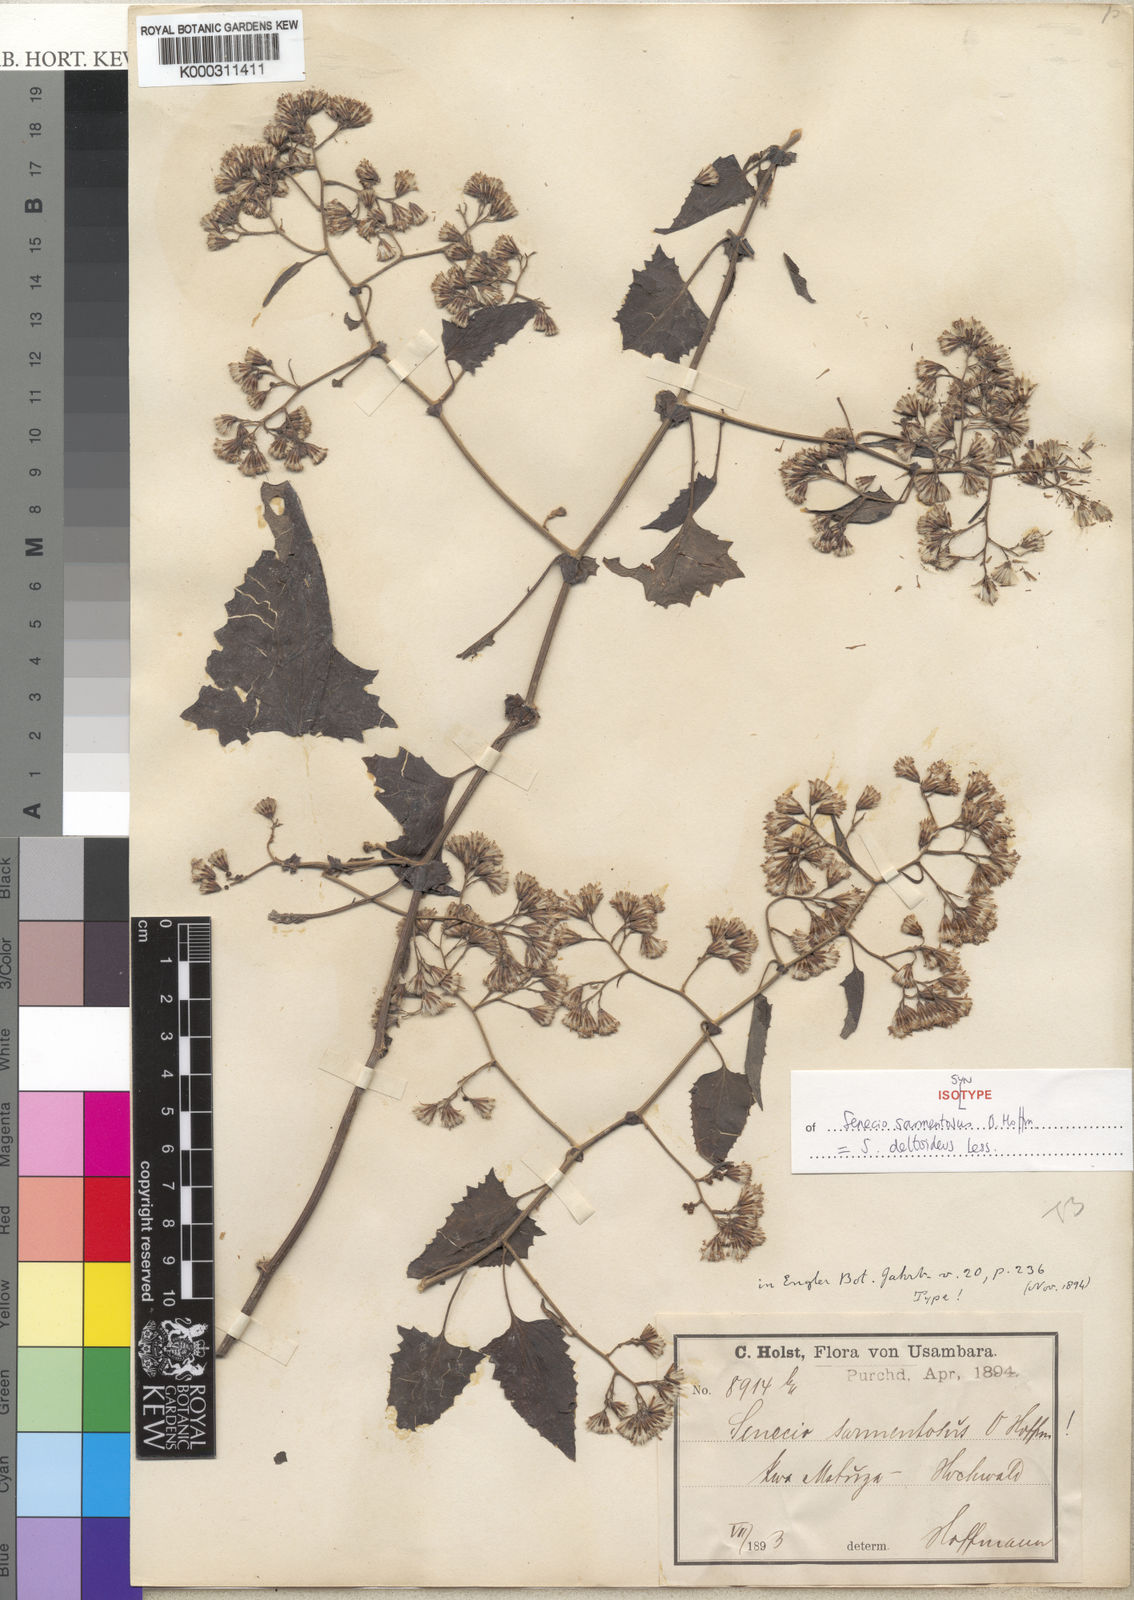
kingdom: Plantae
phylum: Tracheophyta
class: Magnoliopsida
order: Asterales
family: Asteraceae
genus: Senecio
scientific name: Senecio deltoideus
